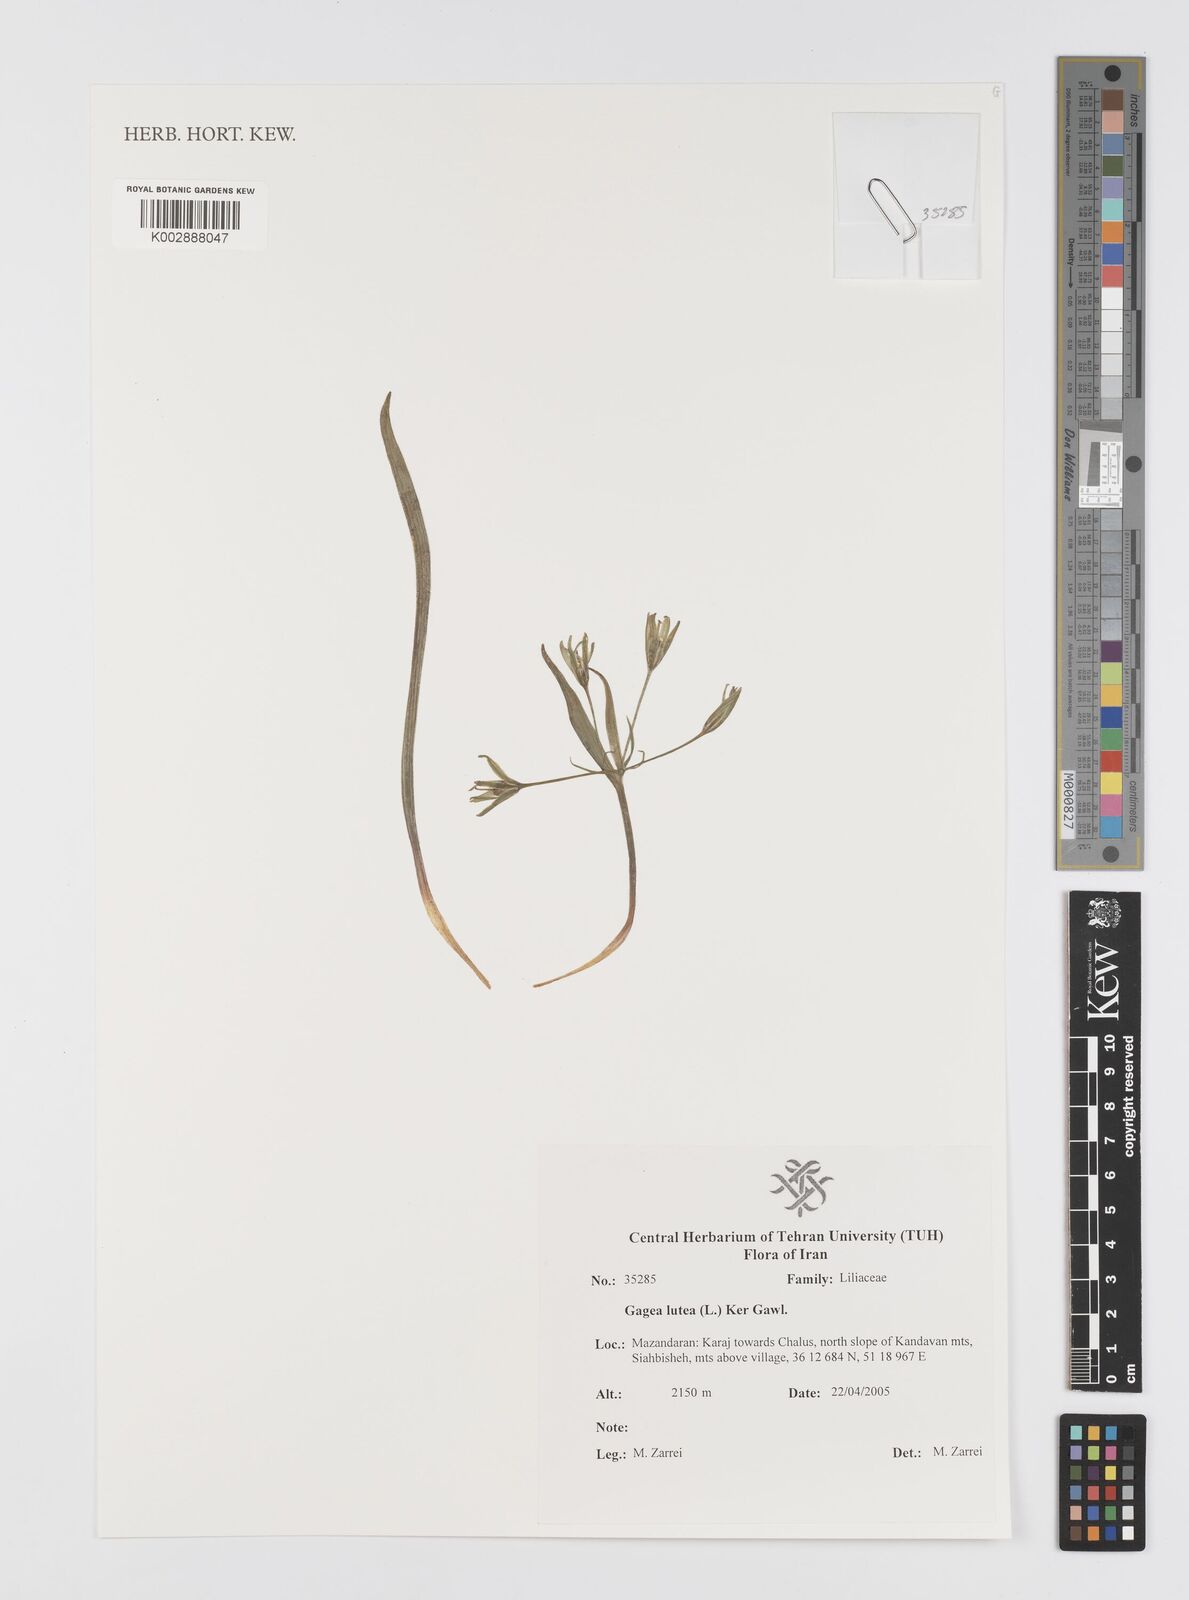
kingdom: Plantae
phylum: Tracheophyta
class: Liliopsida
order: Liliales
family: Liliaceae
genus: Gagea
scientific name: Gagea lutea
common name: Yellow star-of-bethlehem
